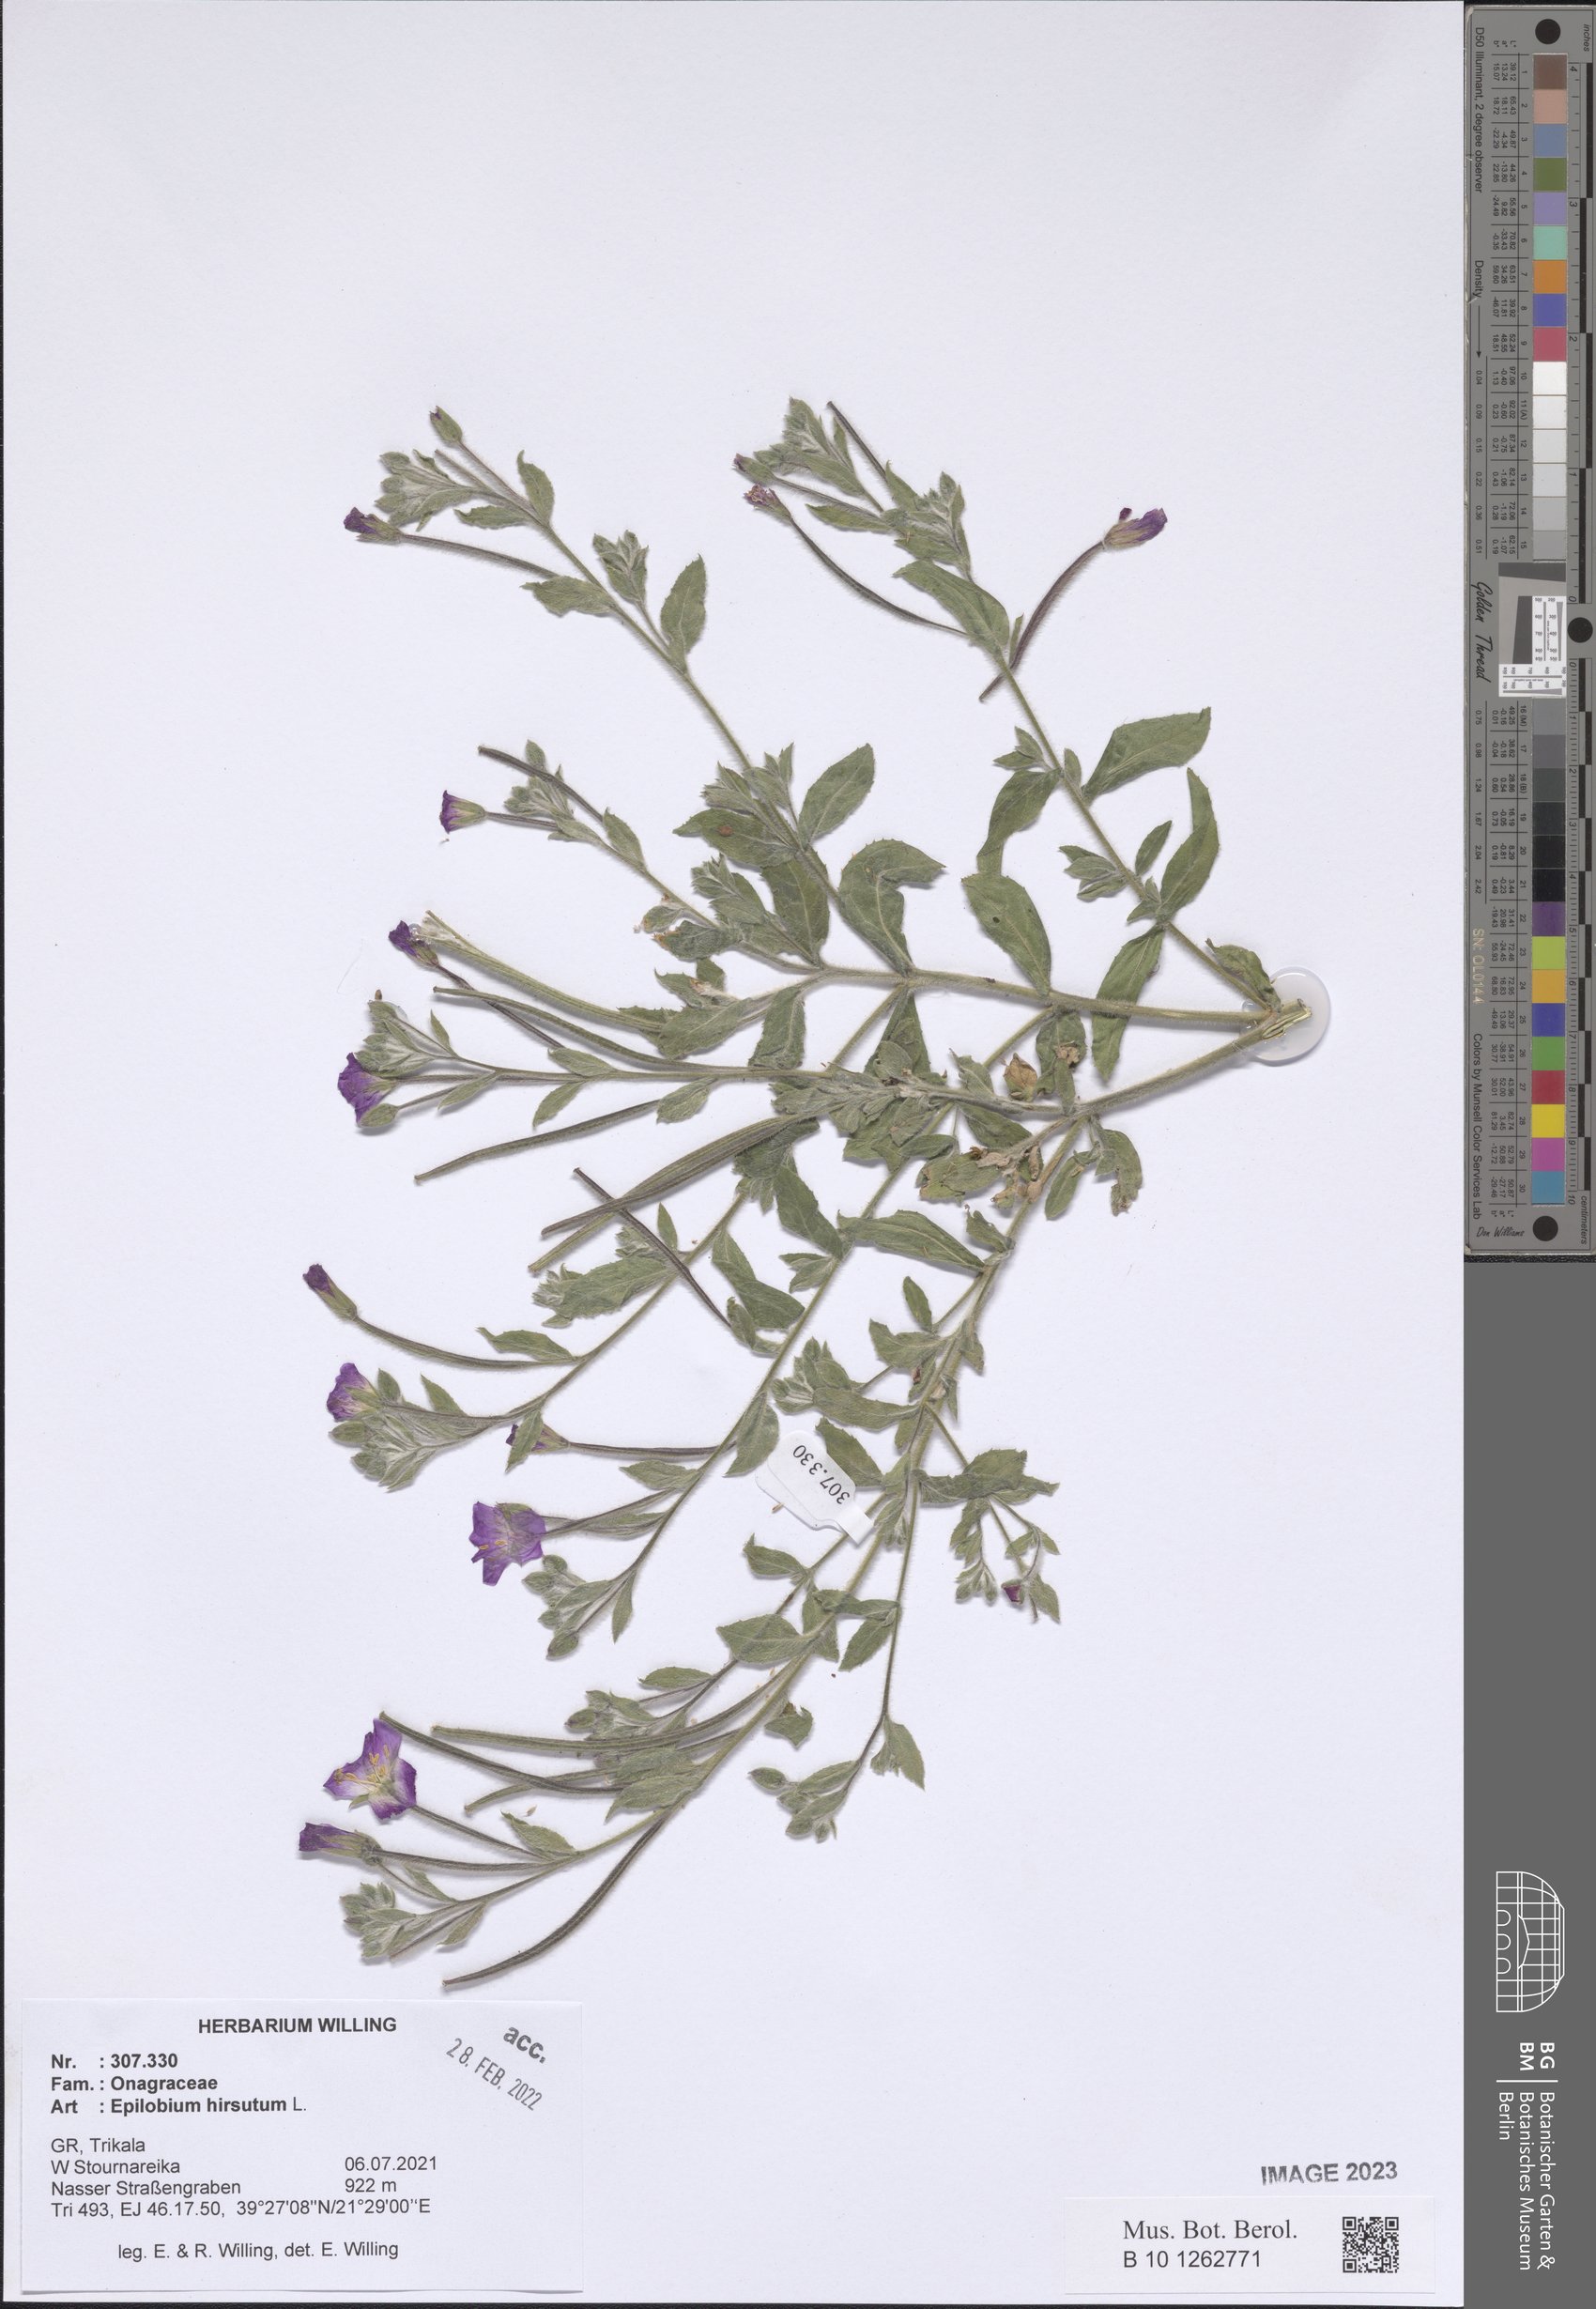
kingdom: Plantae
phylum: Tracheophyta
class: Magnoliopsida
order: Myrtales
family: Onagraceae
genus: Epilobium
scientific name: Epilobium hirsutum
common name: Great willowherb
